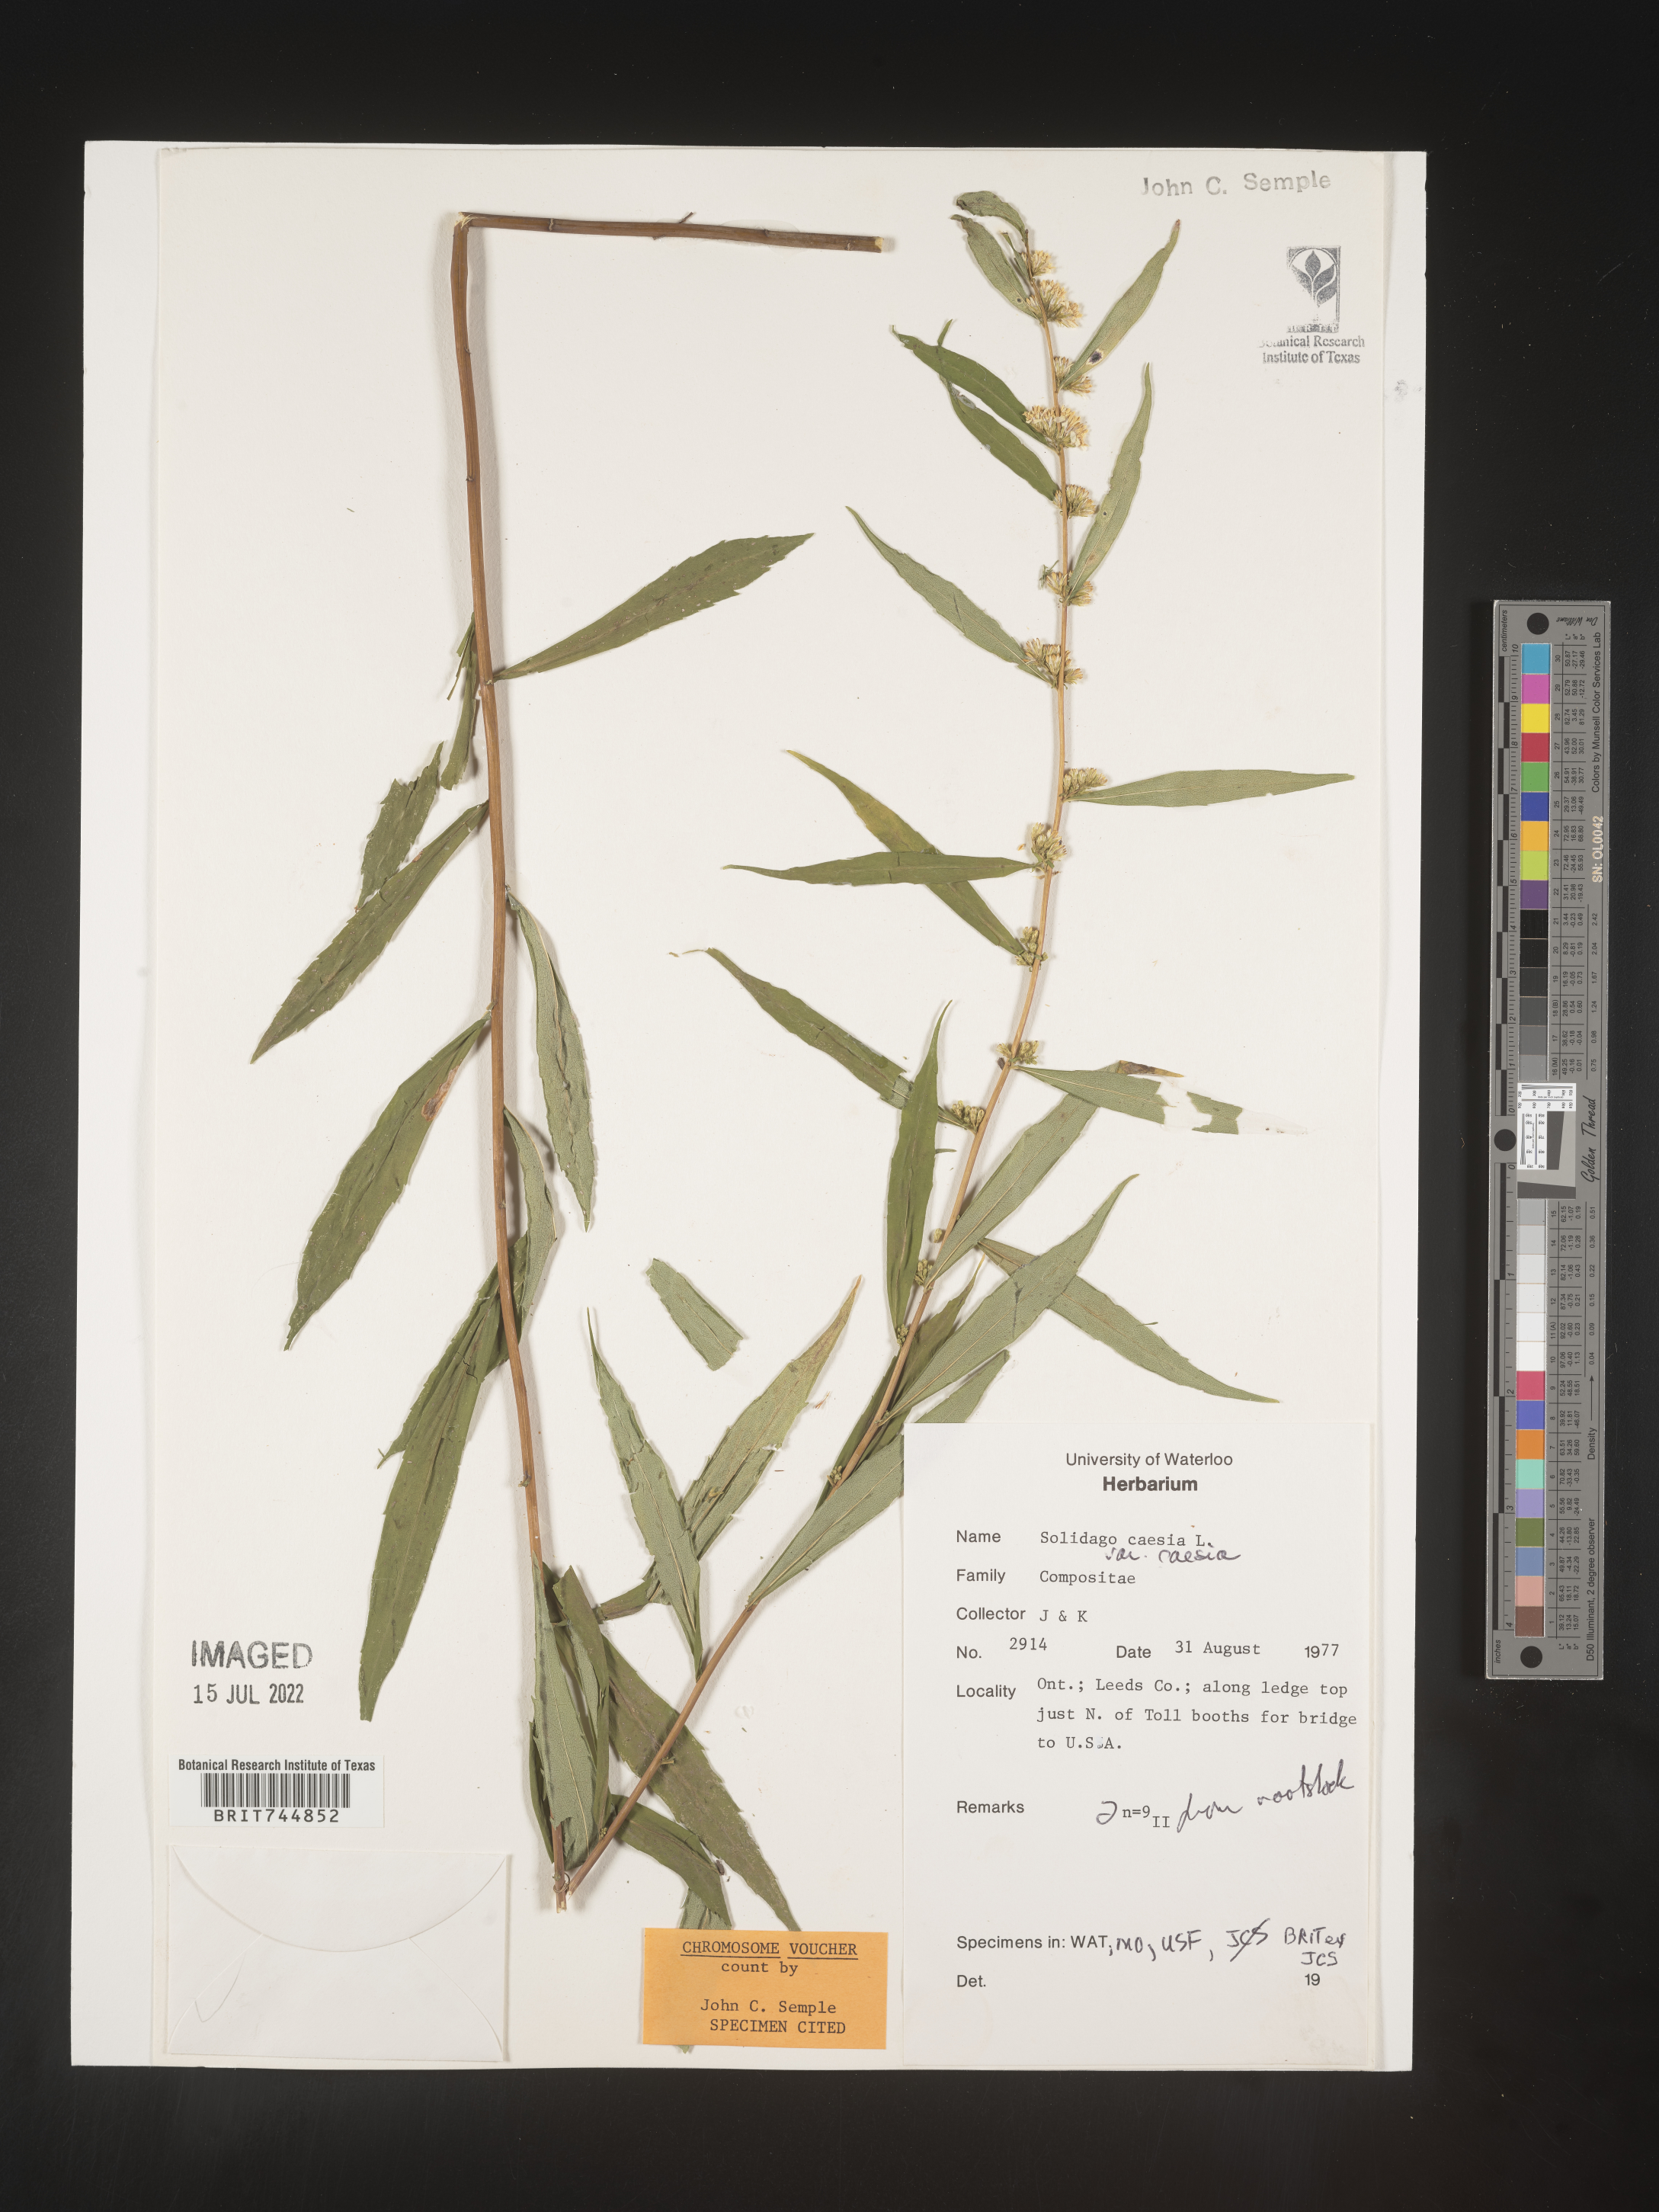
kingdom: Plantae
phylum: Tracheophyta
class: Magnoliopsida
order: Asterales
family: Asteraceae
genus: Solidago
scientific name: Solidago caesia
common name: Woodland goldenrod
